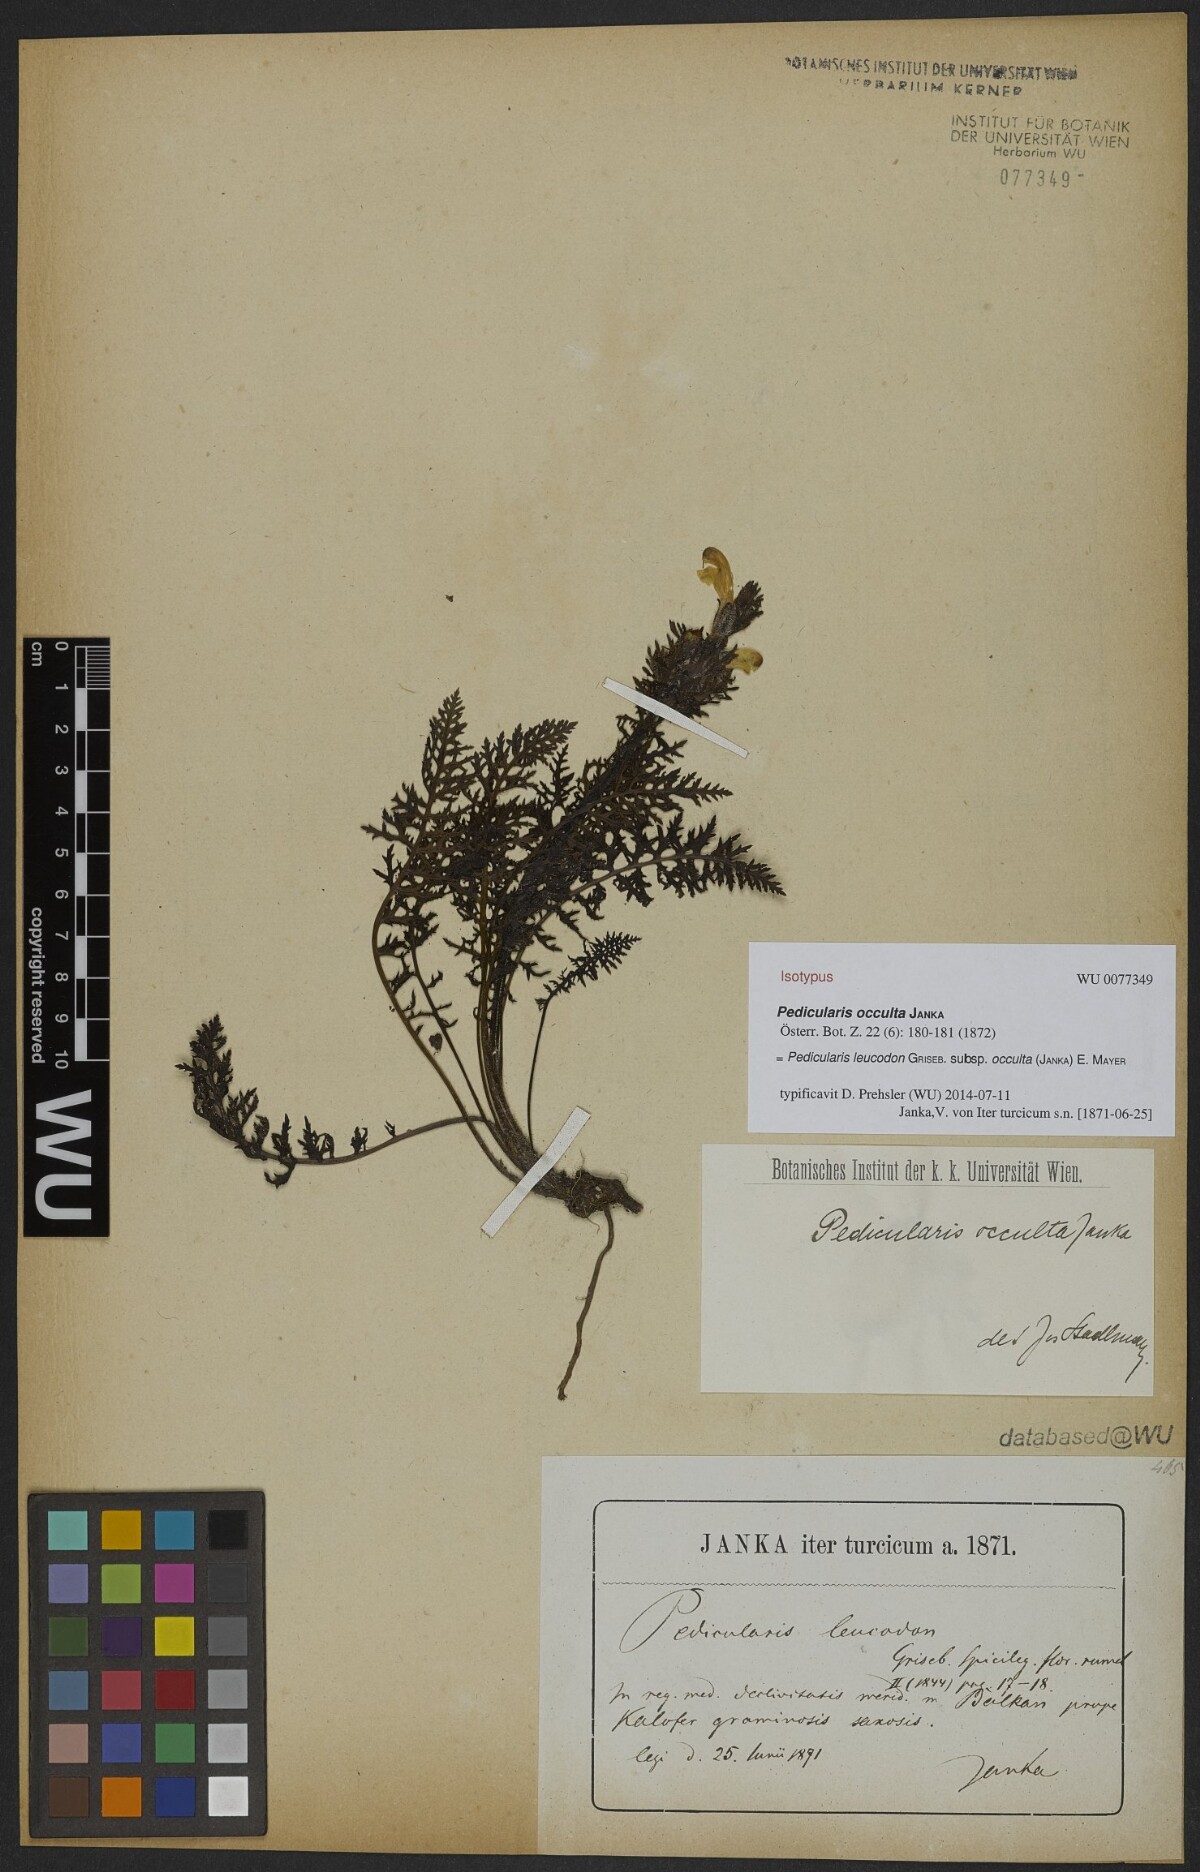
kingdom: Plantae
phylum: Tracheophyta
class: Magnoliopsida
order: Lamiales
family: Orobanchaceae
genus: Pedicularis
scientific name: Pedicularis leucodon
